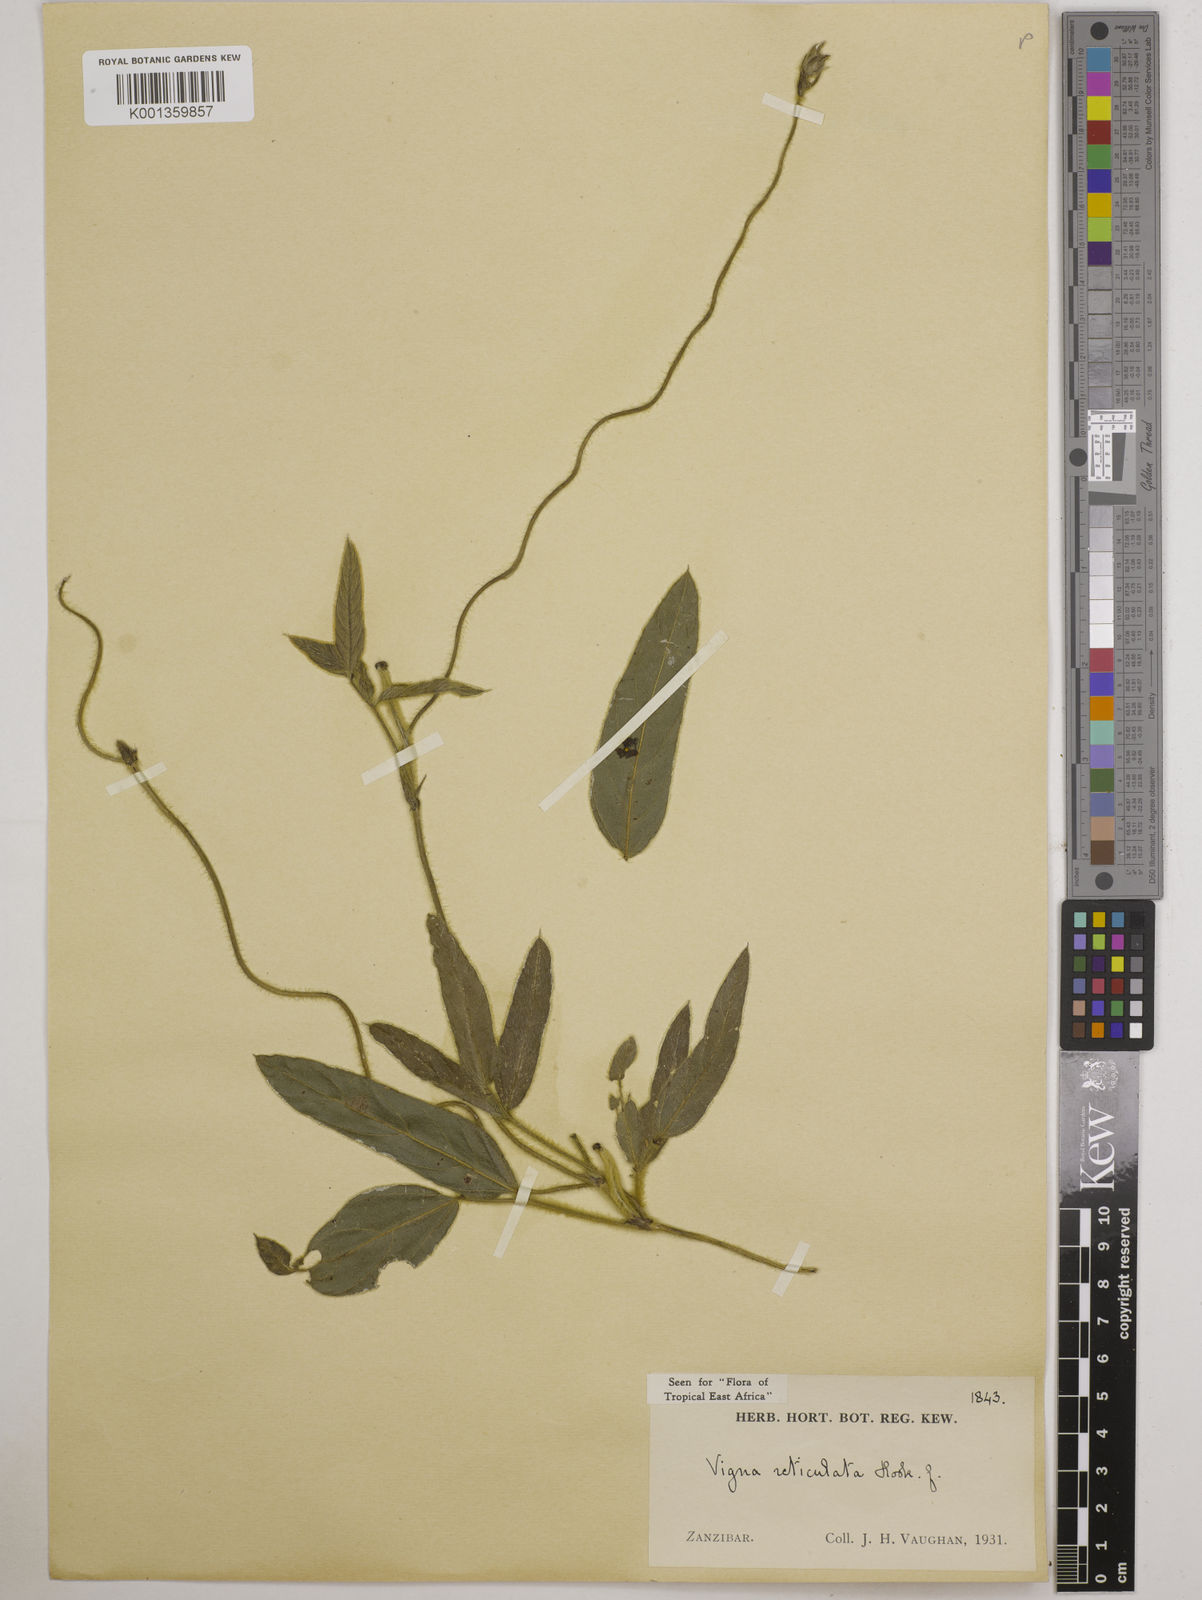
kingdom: Plantae
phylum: Tracheophyta
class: Magnoliopsida
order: Fabales
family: Fabaceae
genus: Vigna
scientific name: Vigna reticulata
